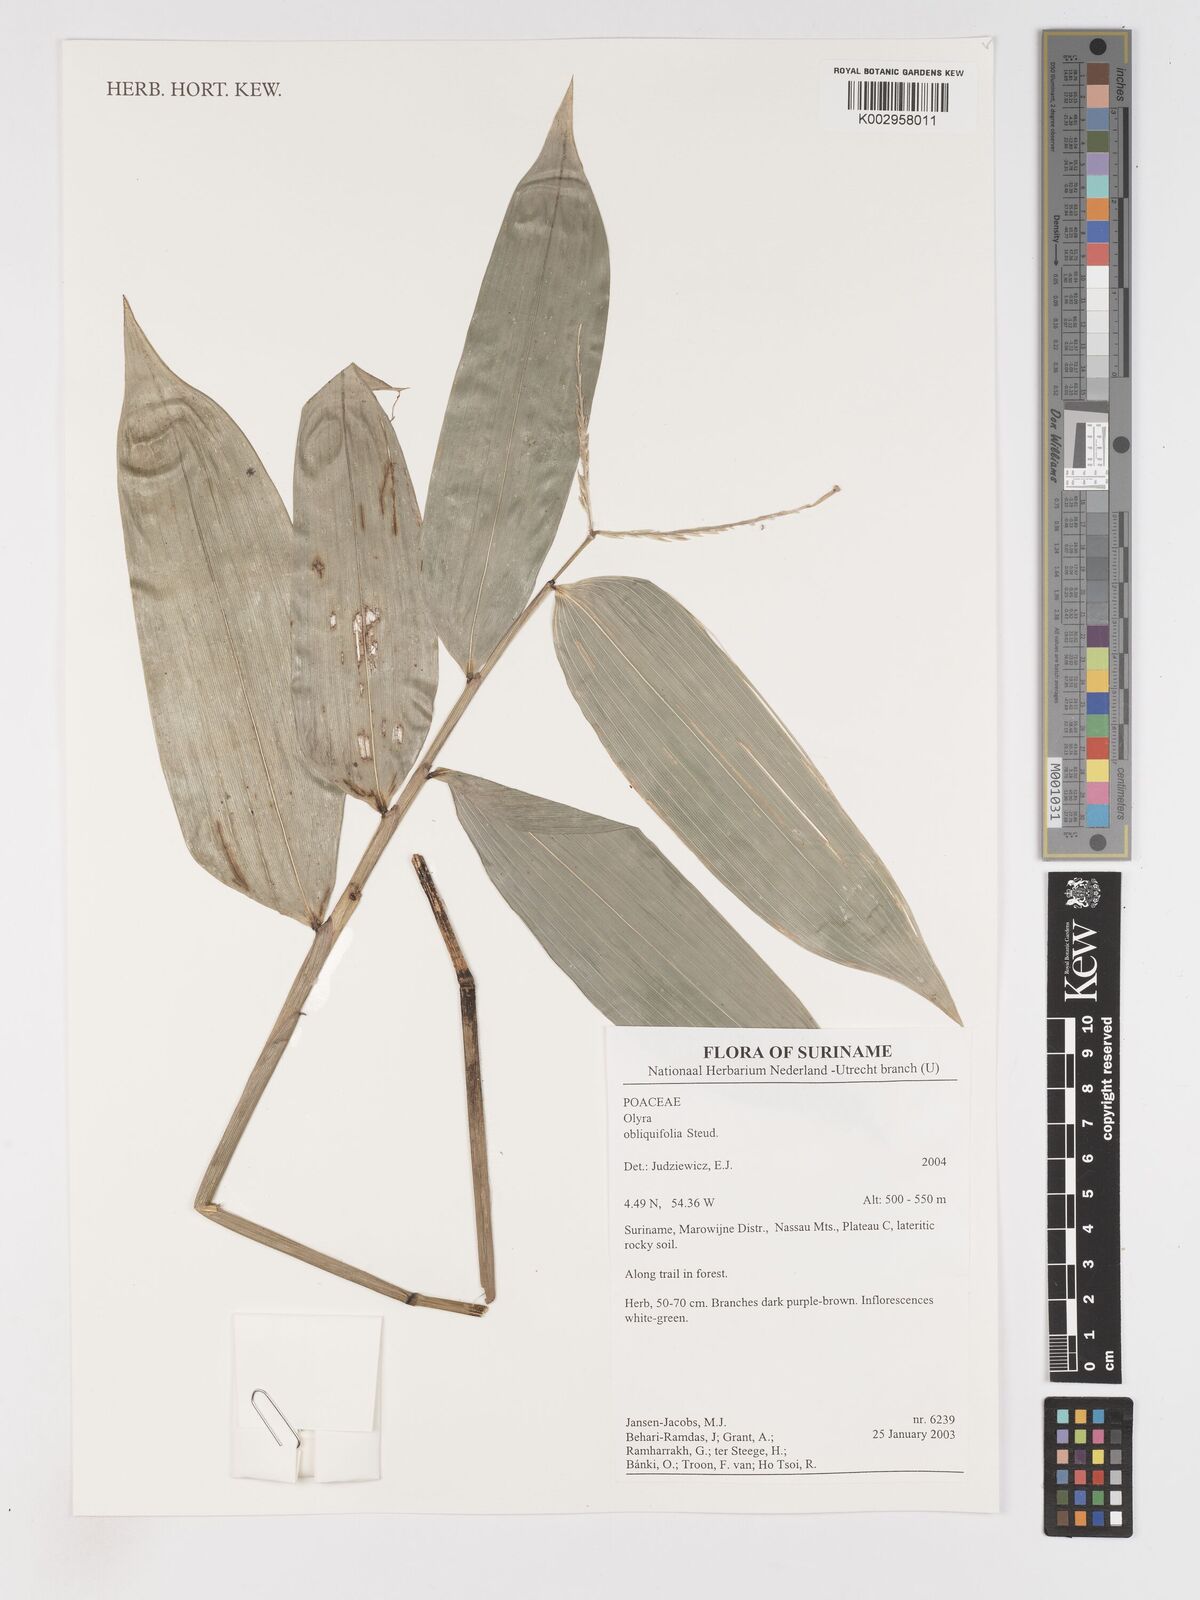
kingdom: Plantae
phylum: Tracheophyta
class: Liliopsida
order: Poales
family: Poaceae
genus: Olyra
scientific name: Olyra obliquifolia
